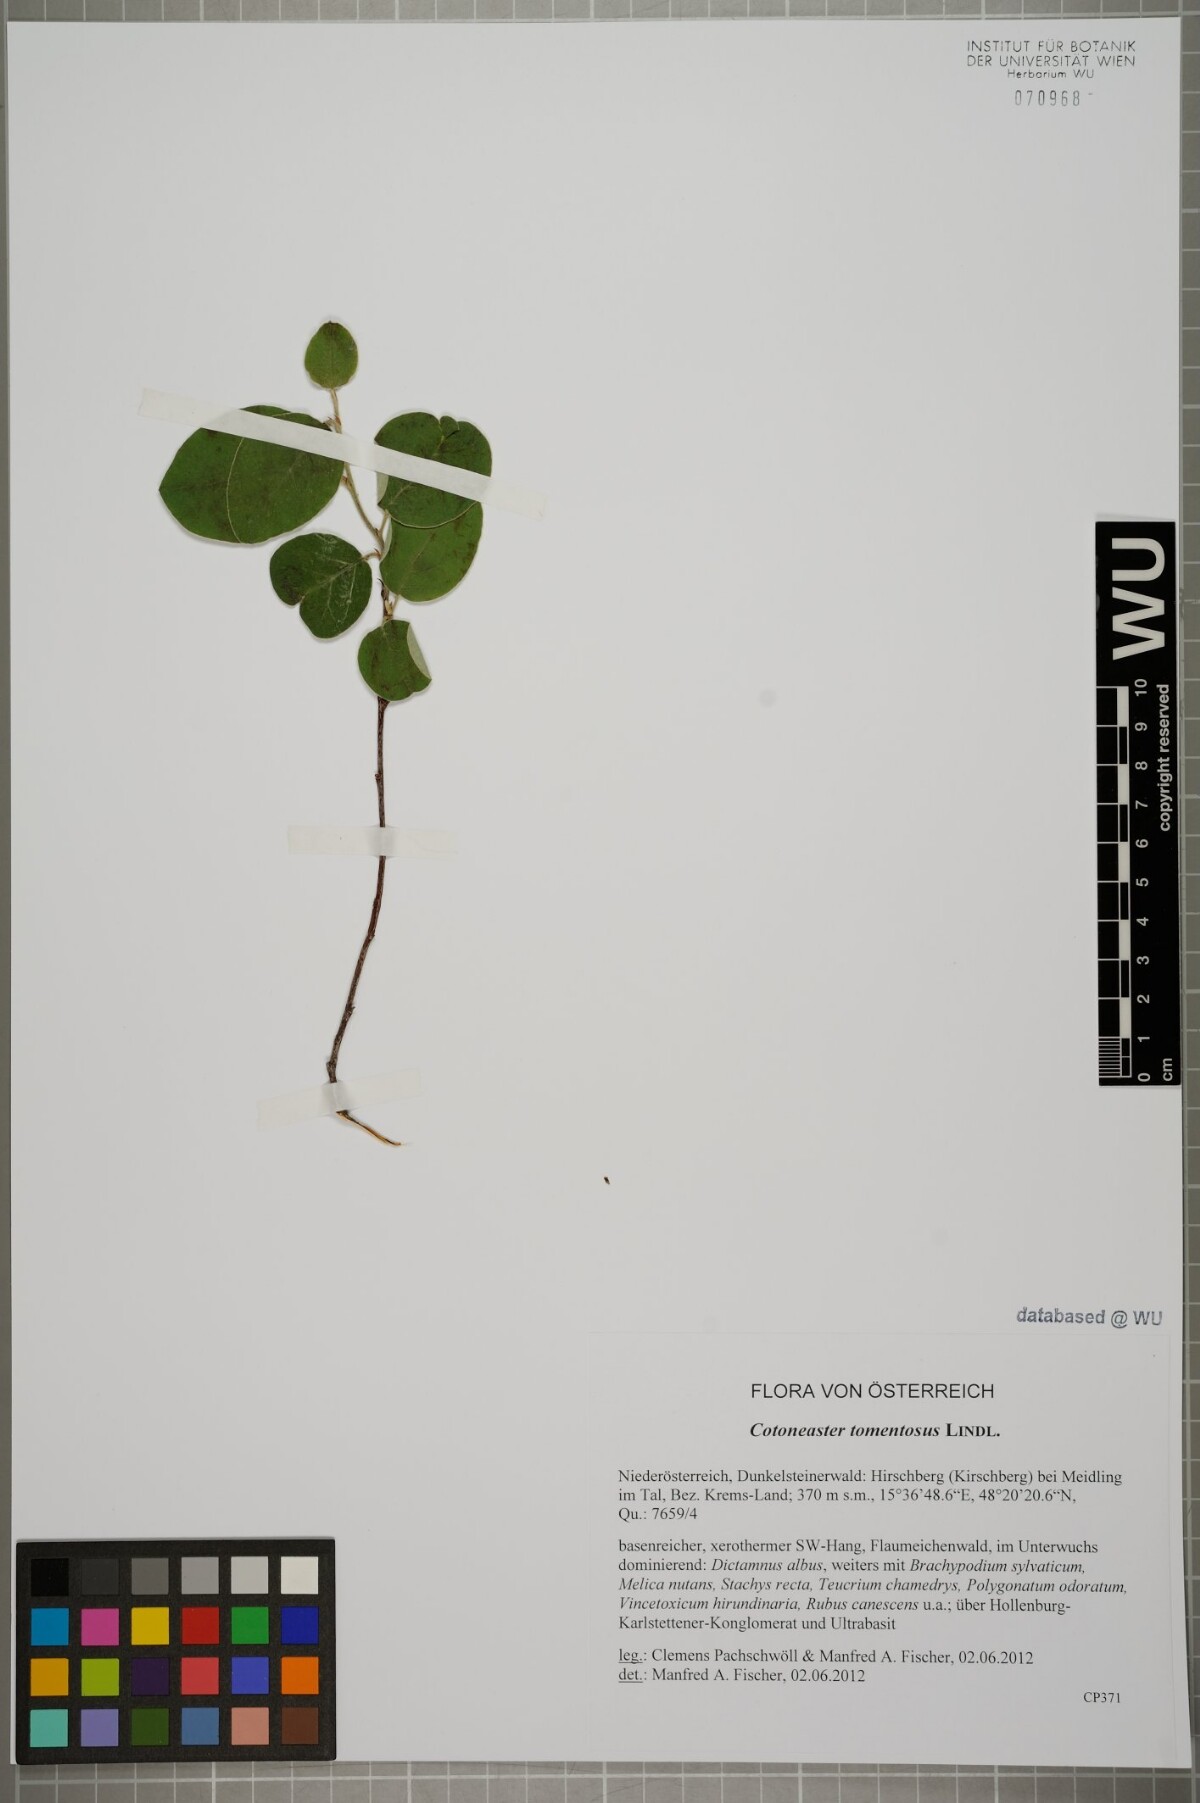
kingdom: Plantae
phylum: Tracheophyta
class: Magnoliopsida
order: Rosales
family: Rosaceae
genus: Cotoneaster
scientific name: Cotoneaster tomentosus
